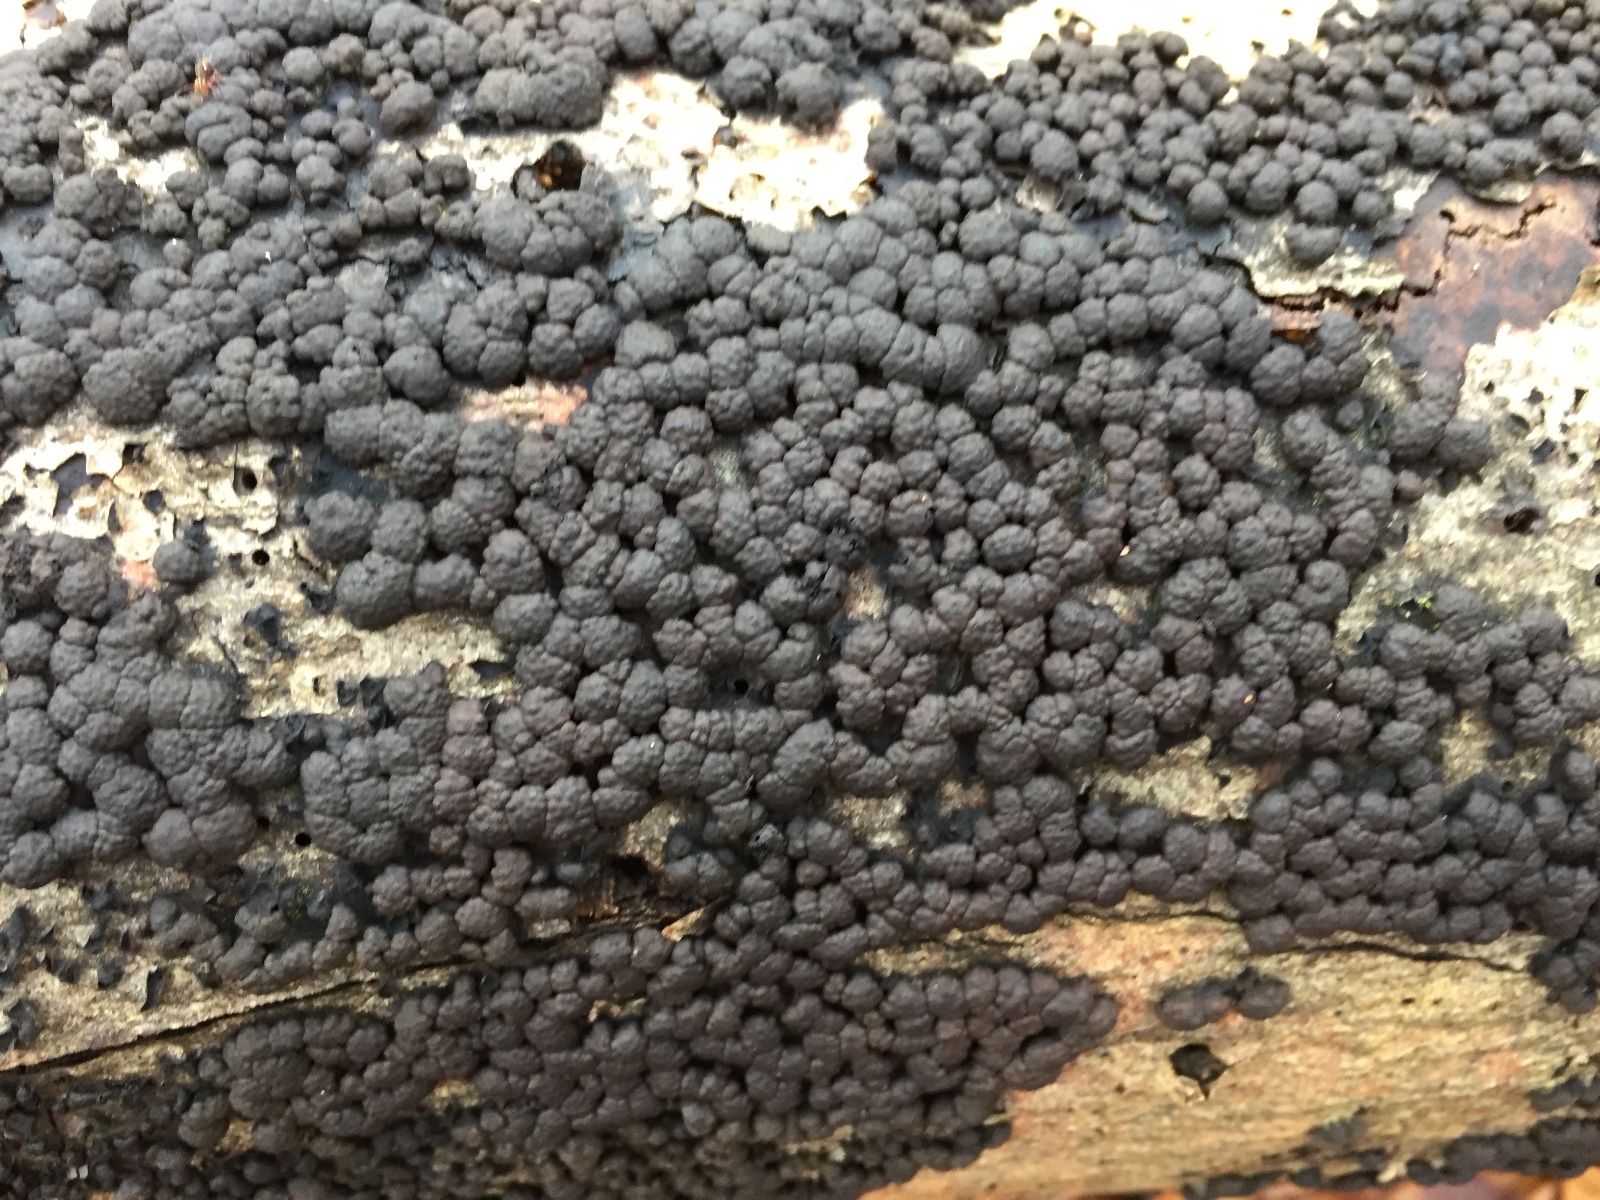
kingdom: Fungi
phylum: Ascomycota
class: Sordariomycetes
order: Xylariales
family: Hypoxylaceae
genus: Jackrogersella
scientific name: Jackrogersella cohaerens
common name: sammenflydende kulbær
